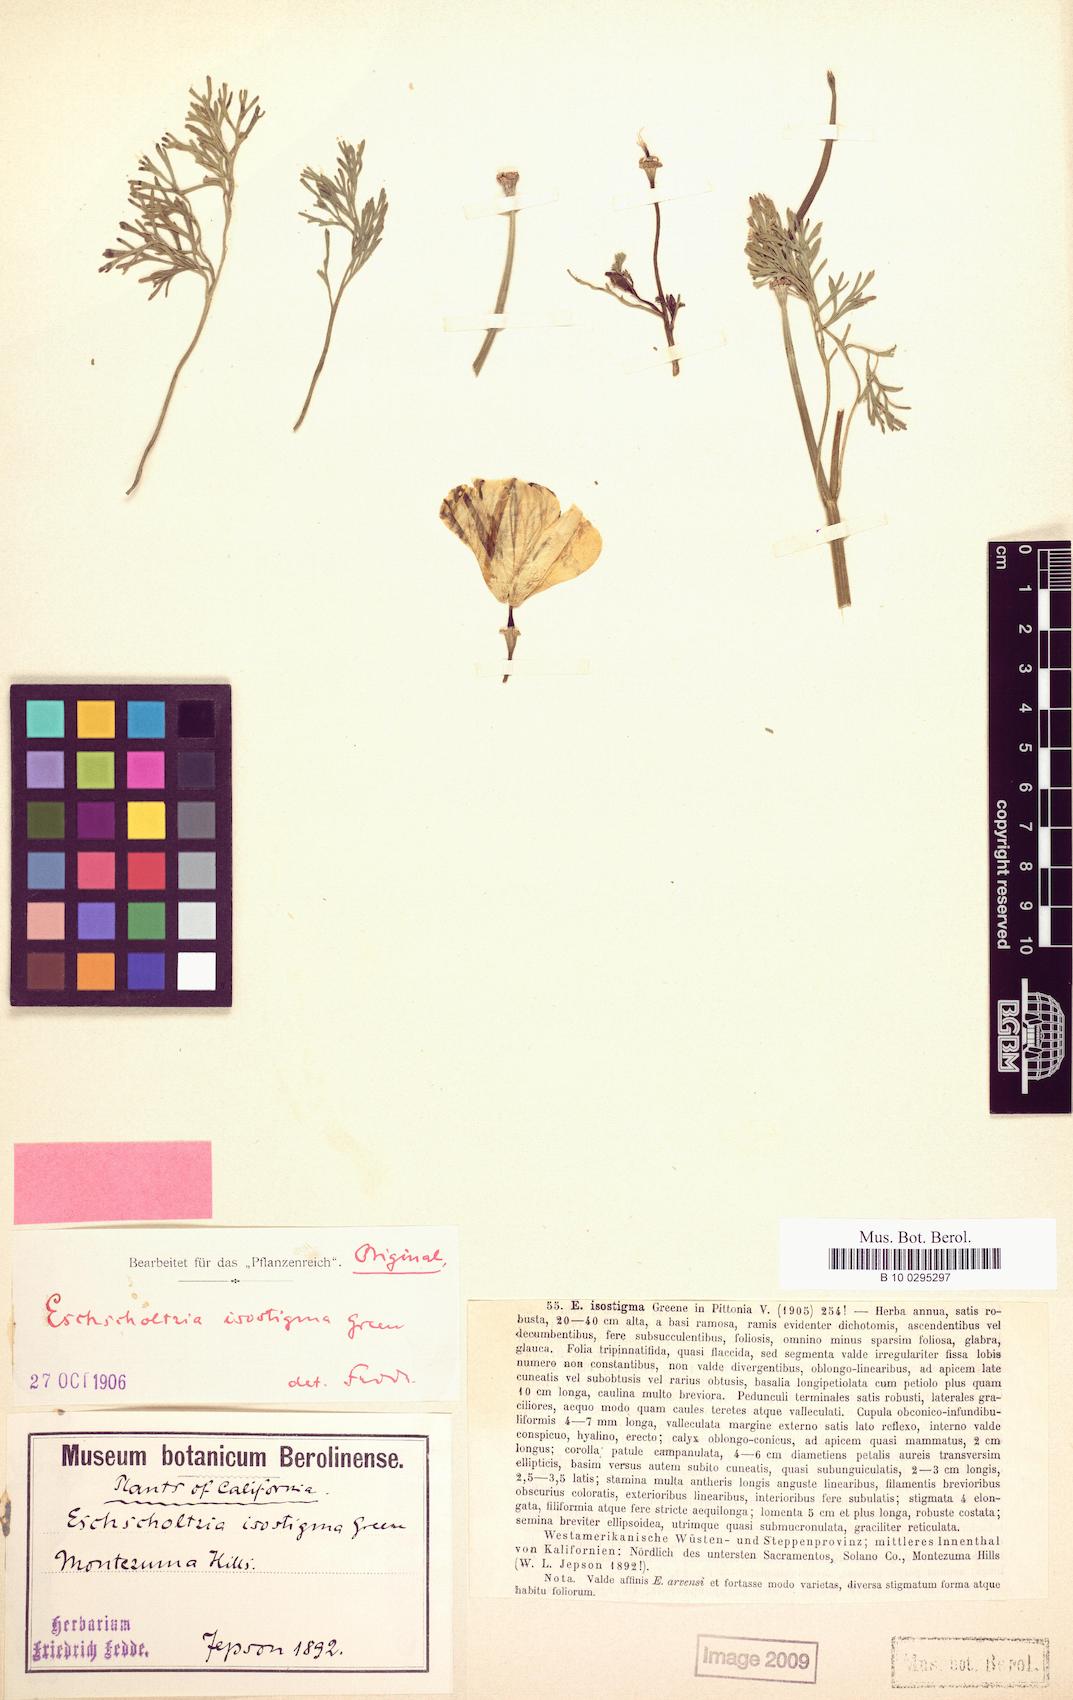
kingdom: Plantae
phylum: Tracheophyta
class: Magnoliopsida
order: Ranunculales
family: Papaveraceae
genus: Eschscholzia
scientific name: Eschscholzia californica
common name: California poppy
